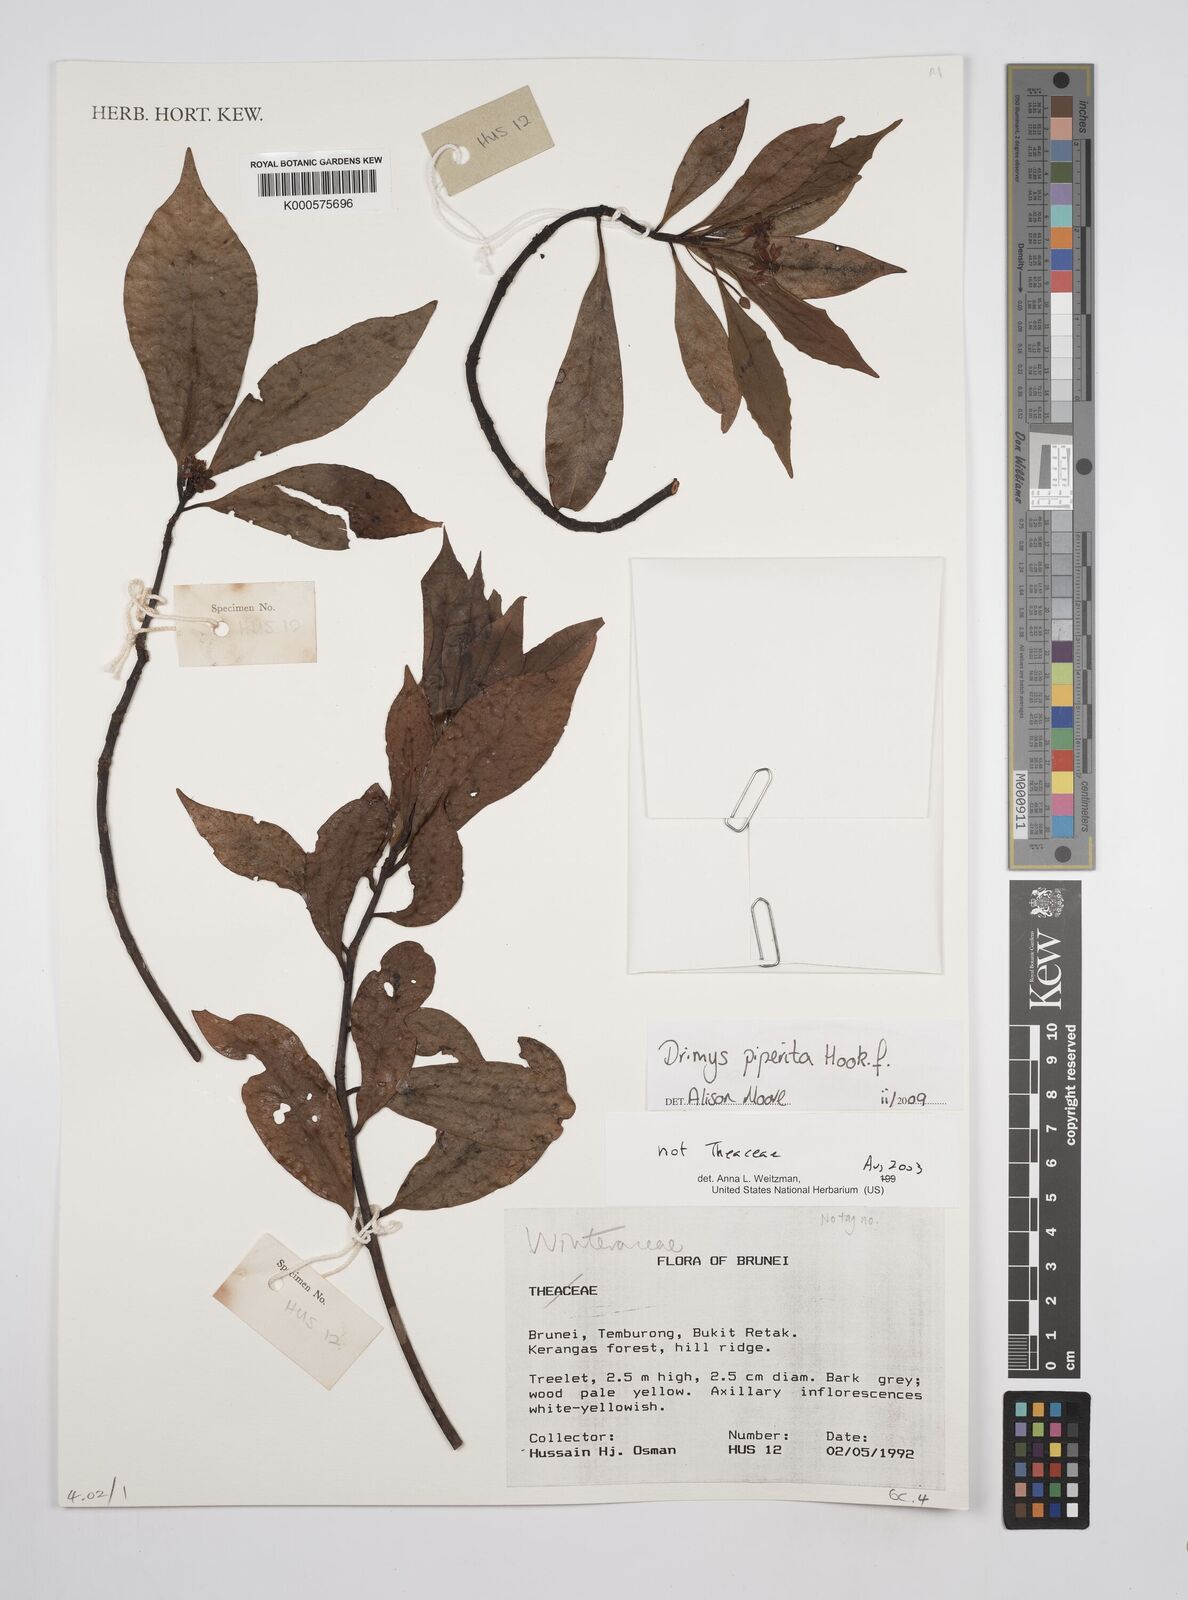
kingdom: Plantae
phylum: Tracheophyta
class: Magnoliopsida
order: Canellales
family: Winteraceae
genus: Drimys
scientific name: Drimys piperita
